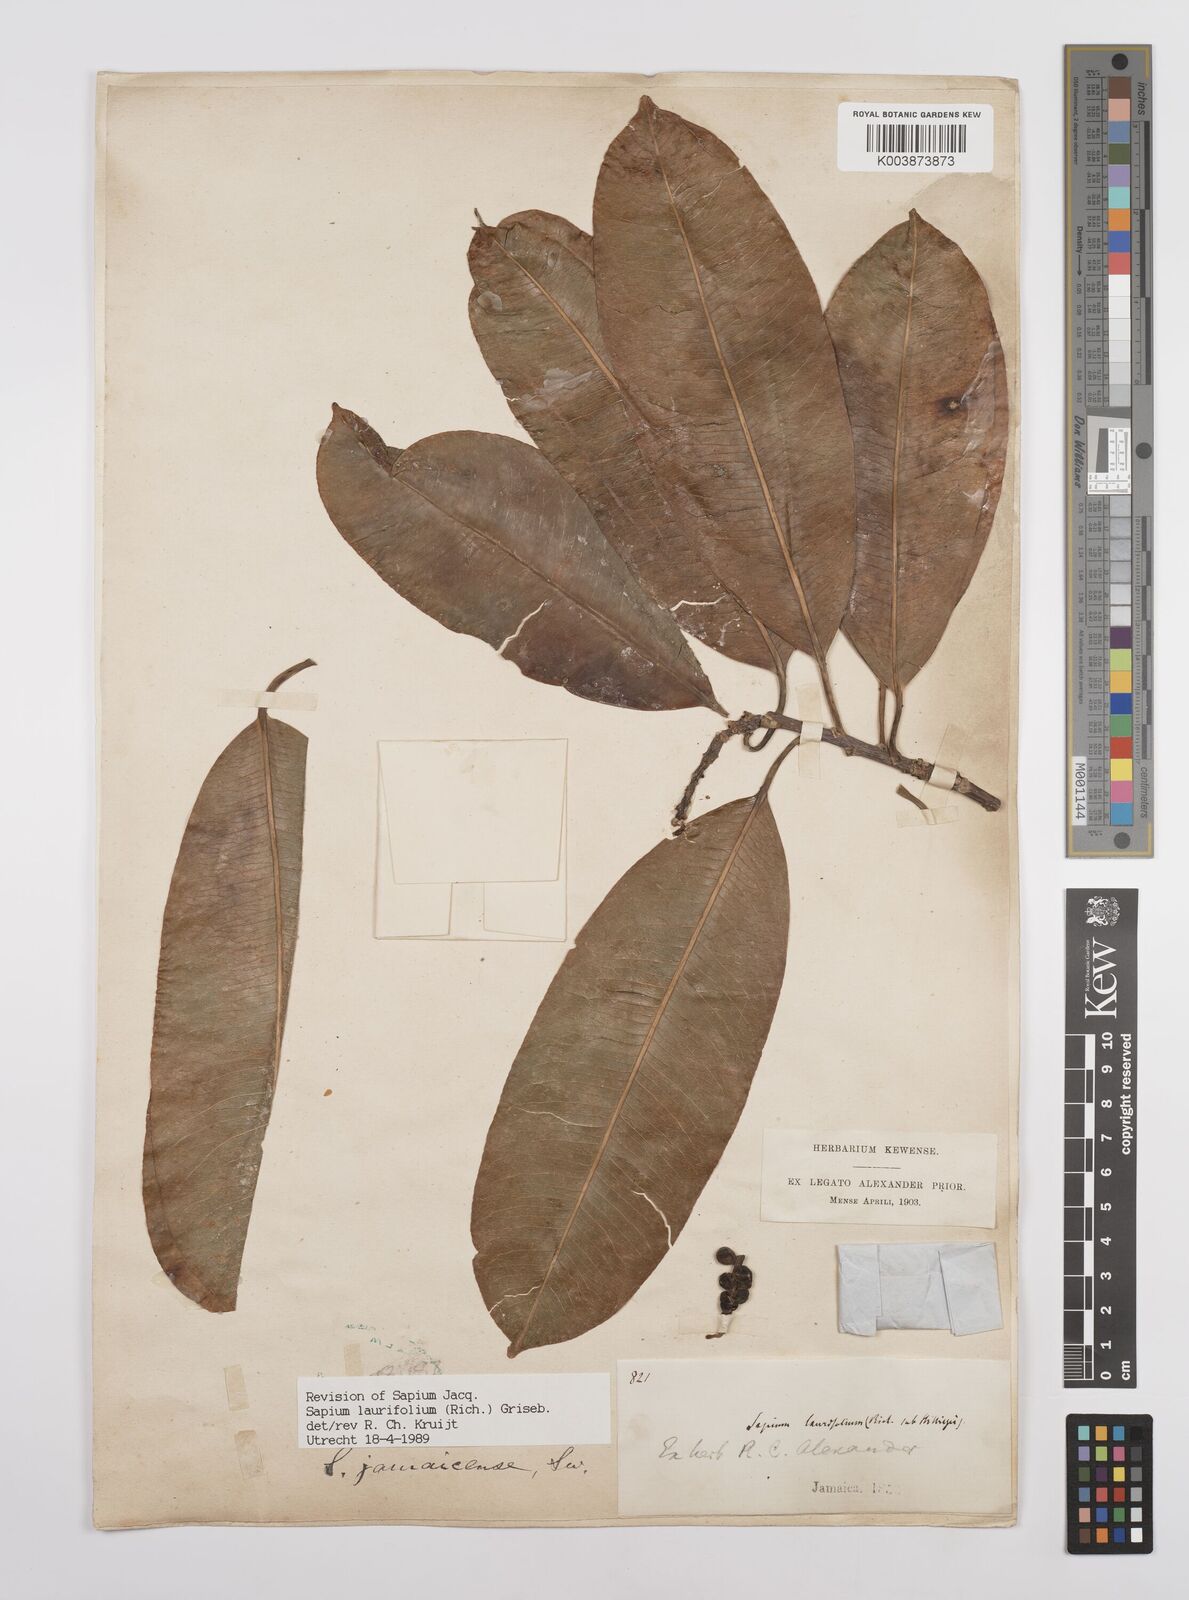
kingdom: Plantae
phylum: Tracheophyta
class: Magnoliopsida
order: Malpighiales
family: Euphorbiaceae
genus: Sapium
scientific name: Sapium glandulosum
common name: Milktree
